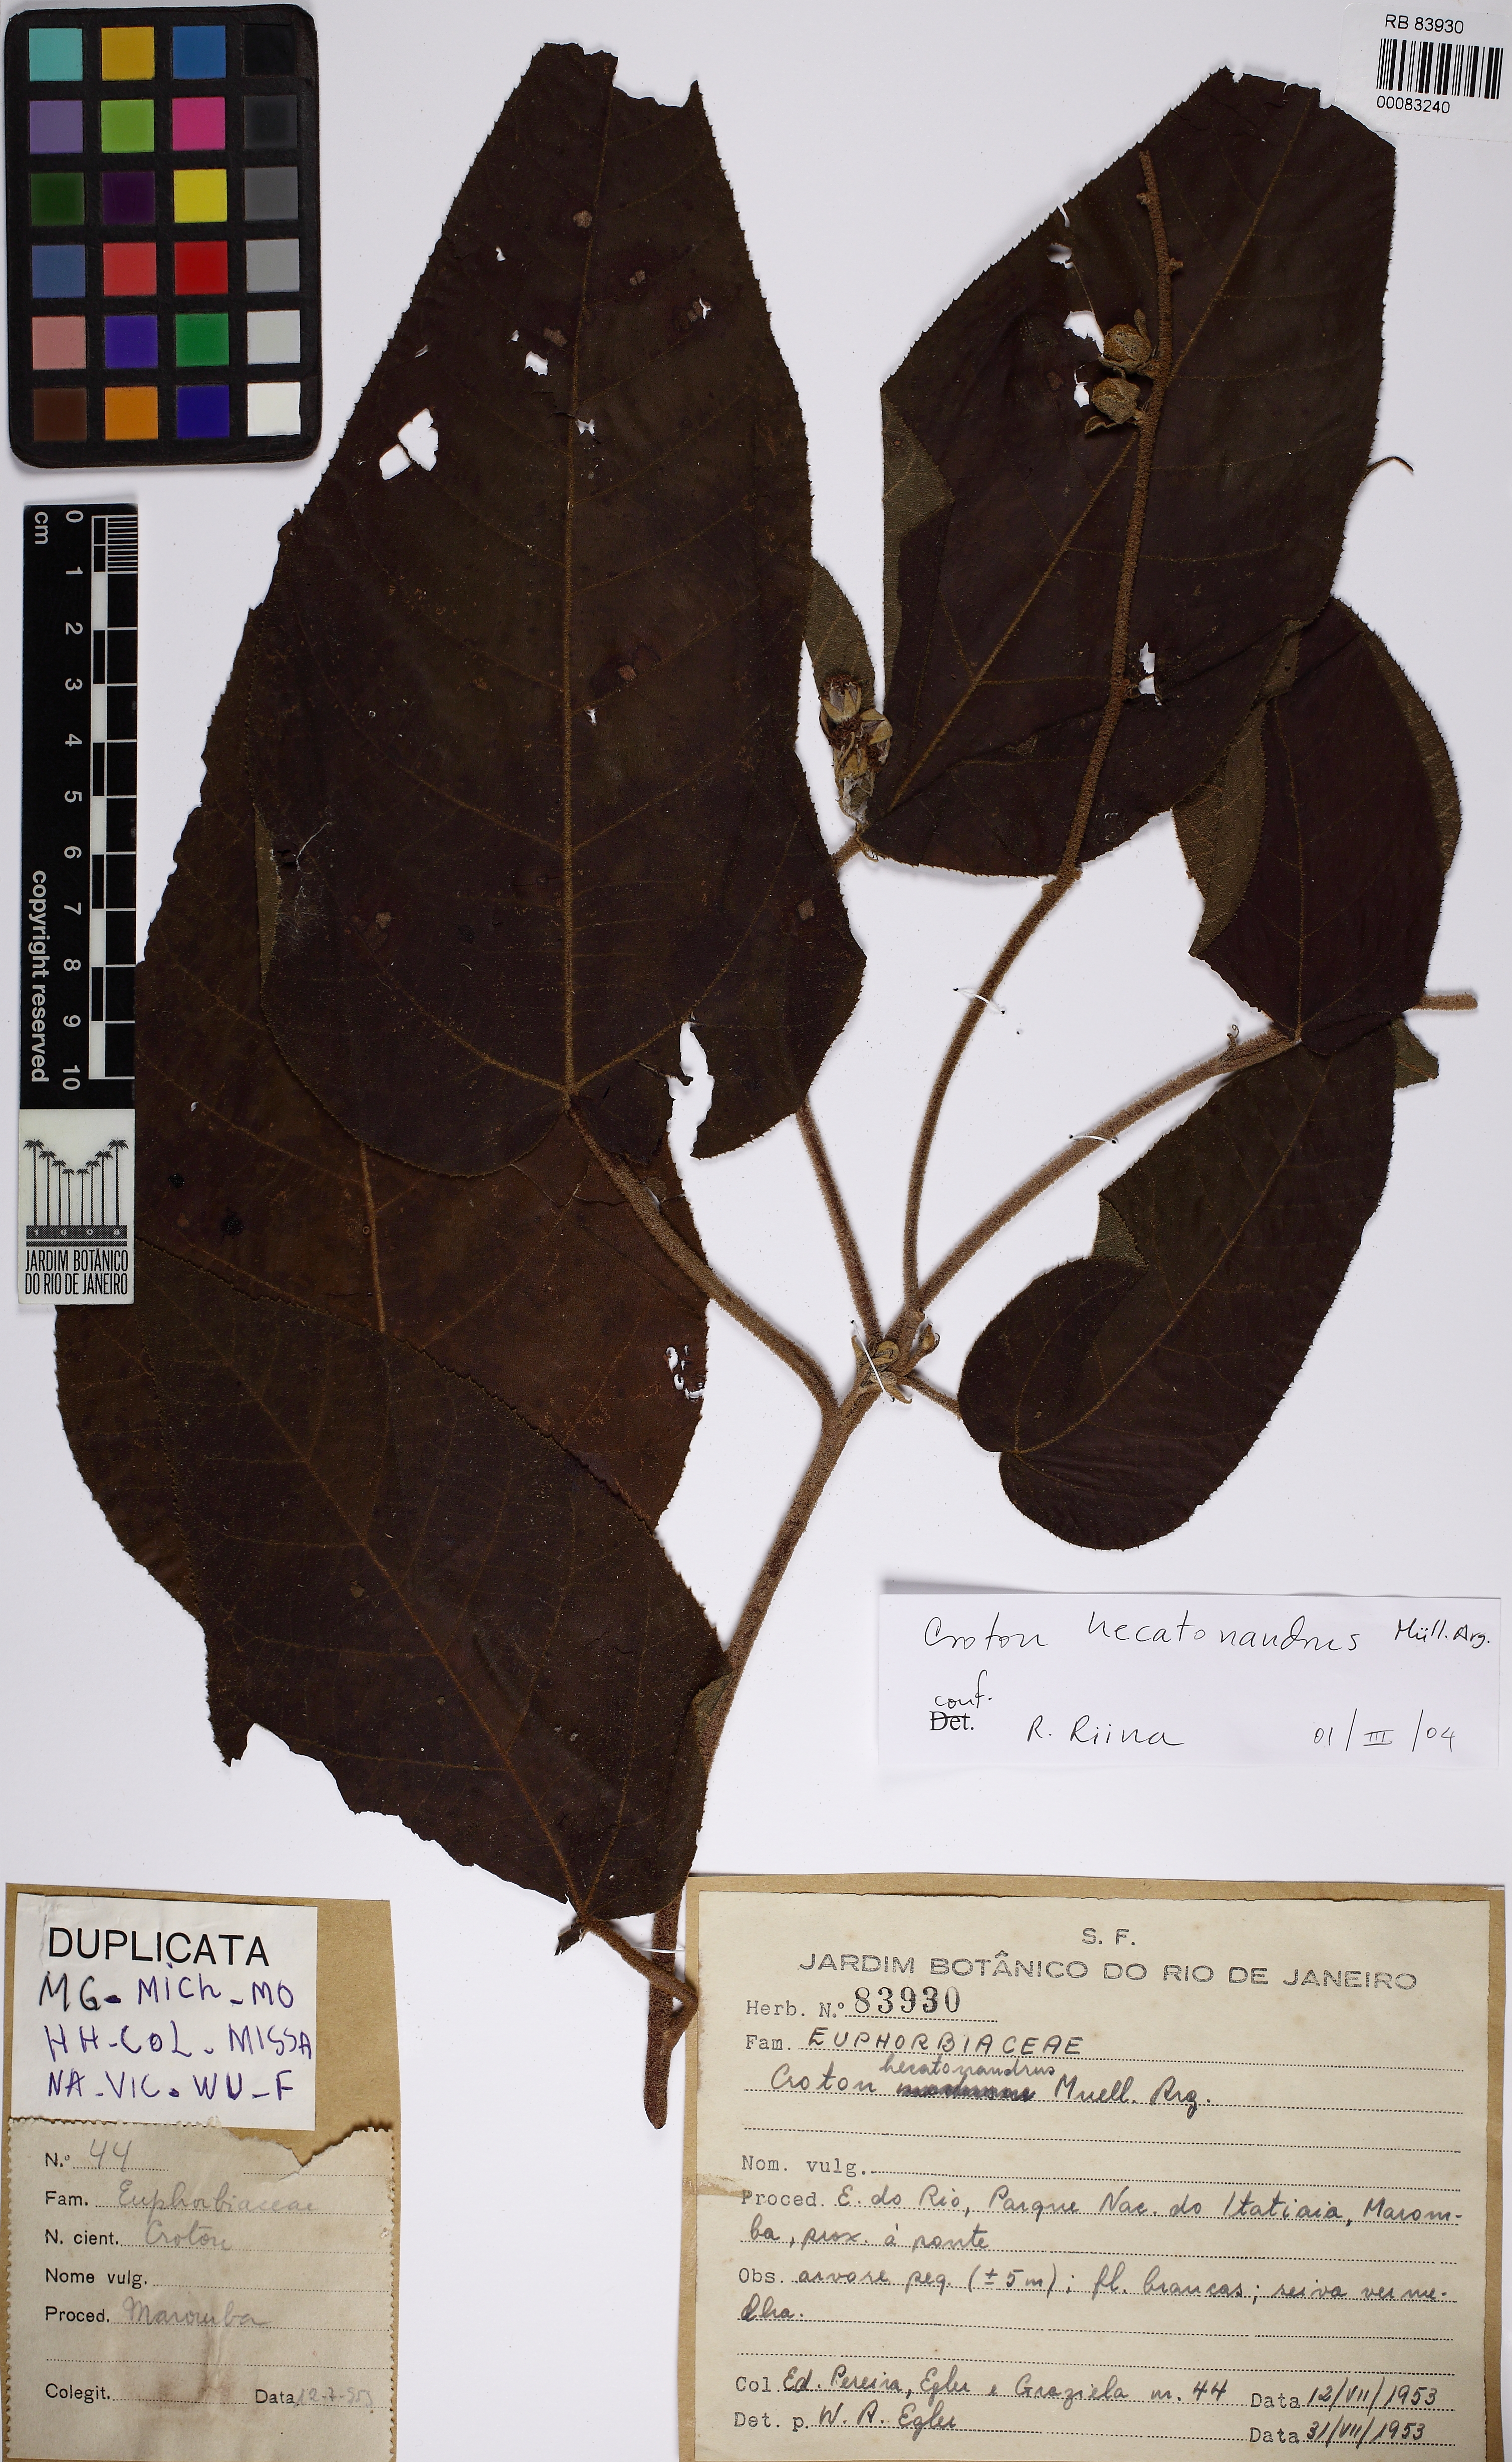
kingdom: Plantae
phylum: Tracheophyta
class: Magnoliopsida
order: Malpighiales
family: Euphorbiaceae
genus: Croton
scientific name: Croton vulnerarius
